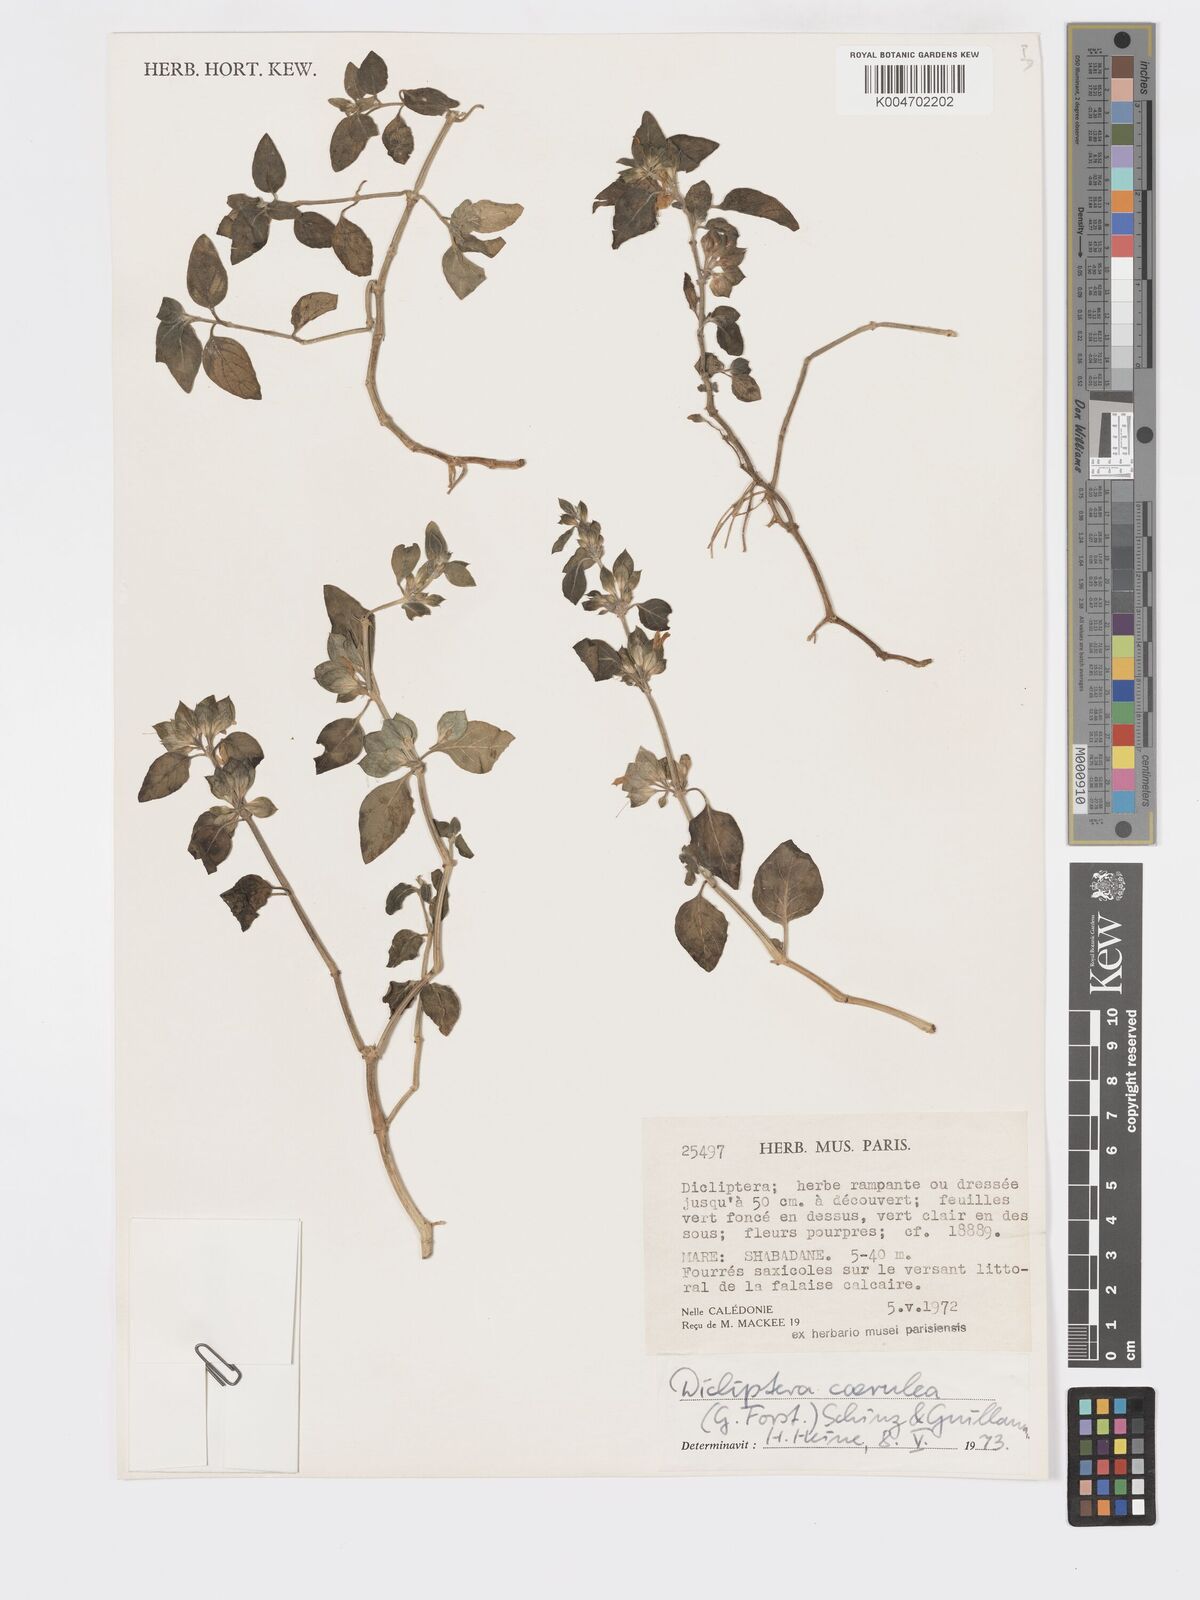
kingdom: Plantae
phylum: Tracheophyta
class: Magnoliopsida
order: Lamiales
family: Acanthaceae
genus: Rungia
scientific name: Rungia parviflora
